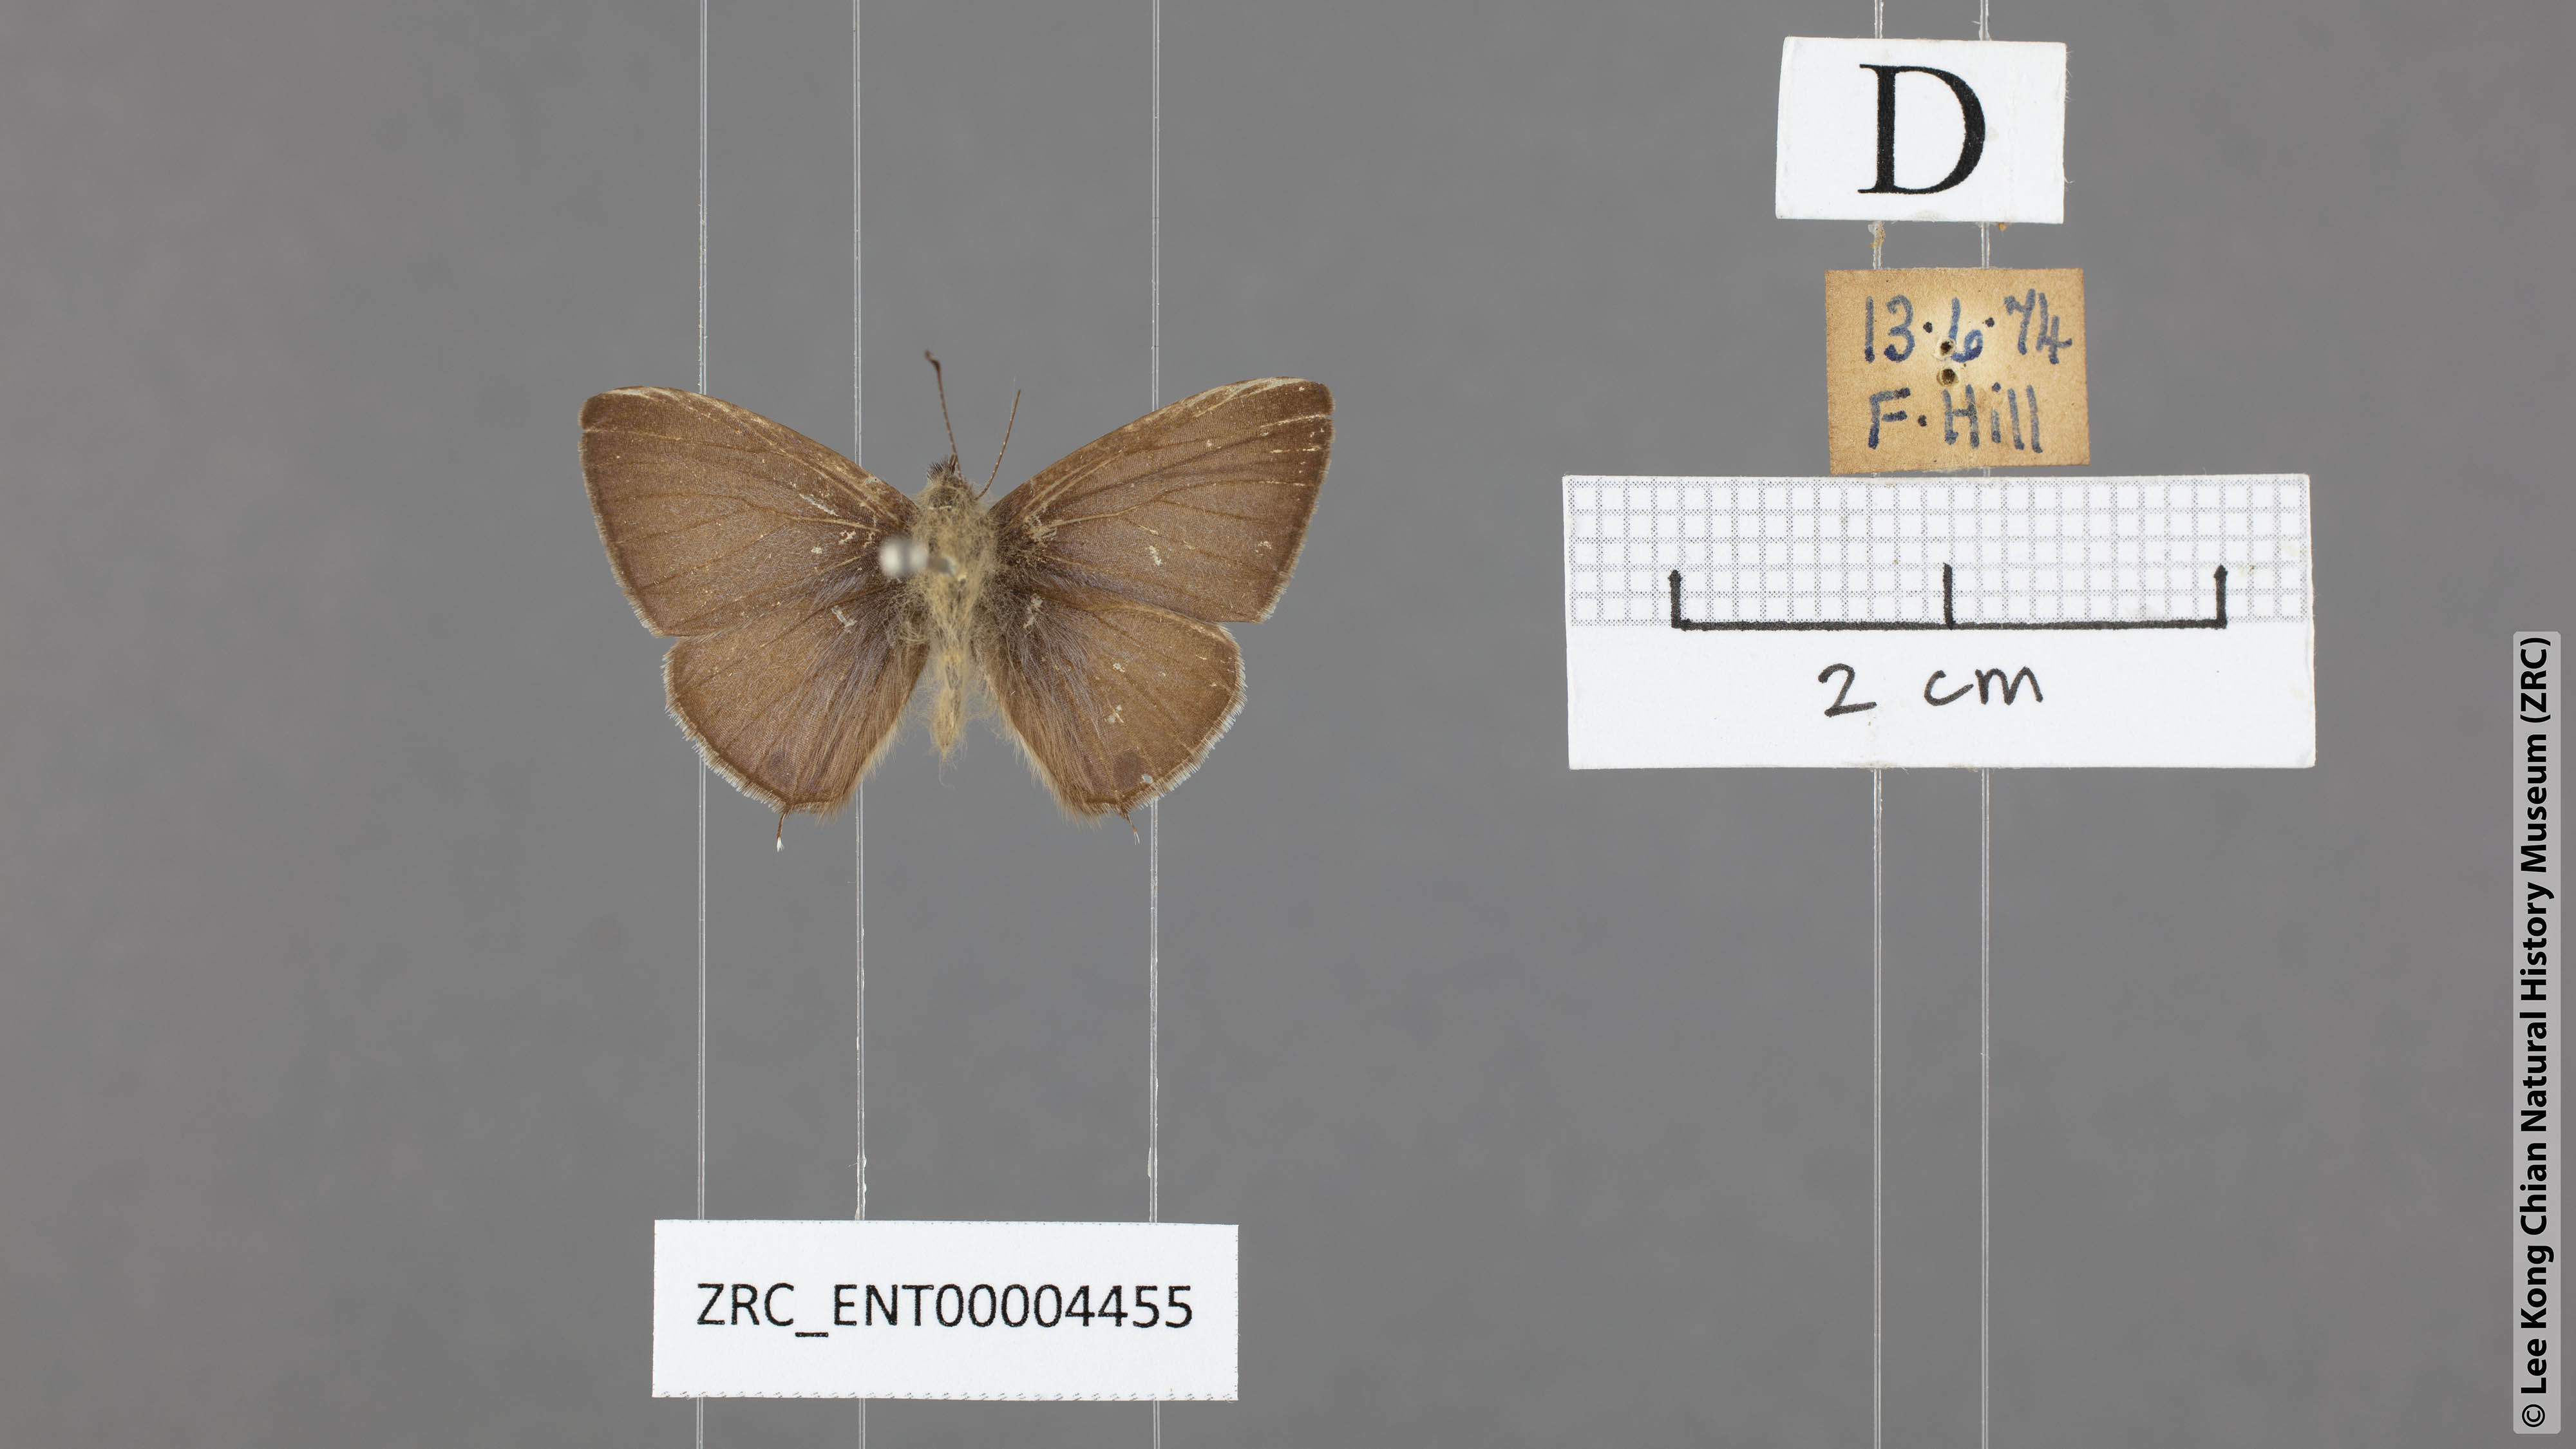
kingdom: Animalia
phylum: Arthropoda
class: Insecta
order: Lepidoptera
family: Lycaenidae
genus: Prosotas
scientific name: Prosotas nelides
